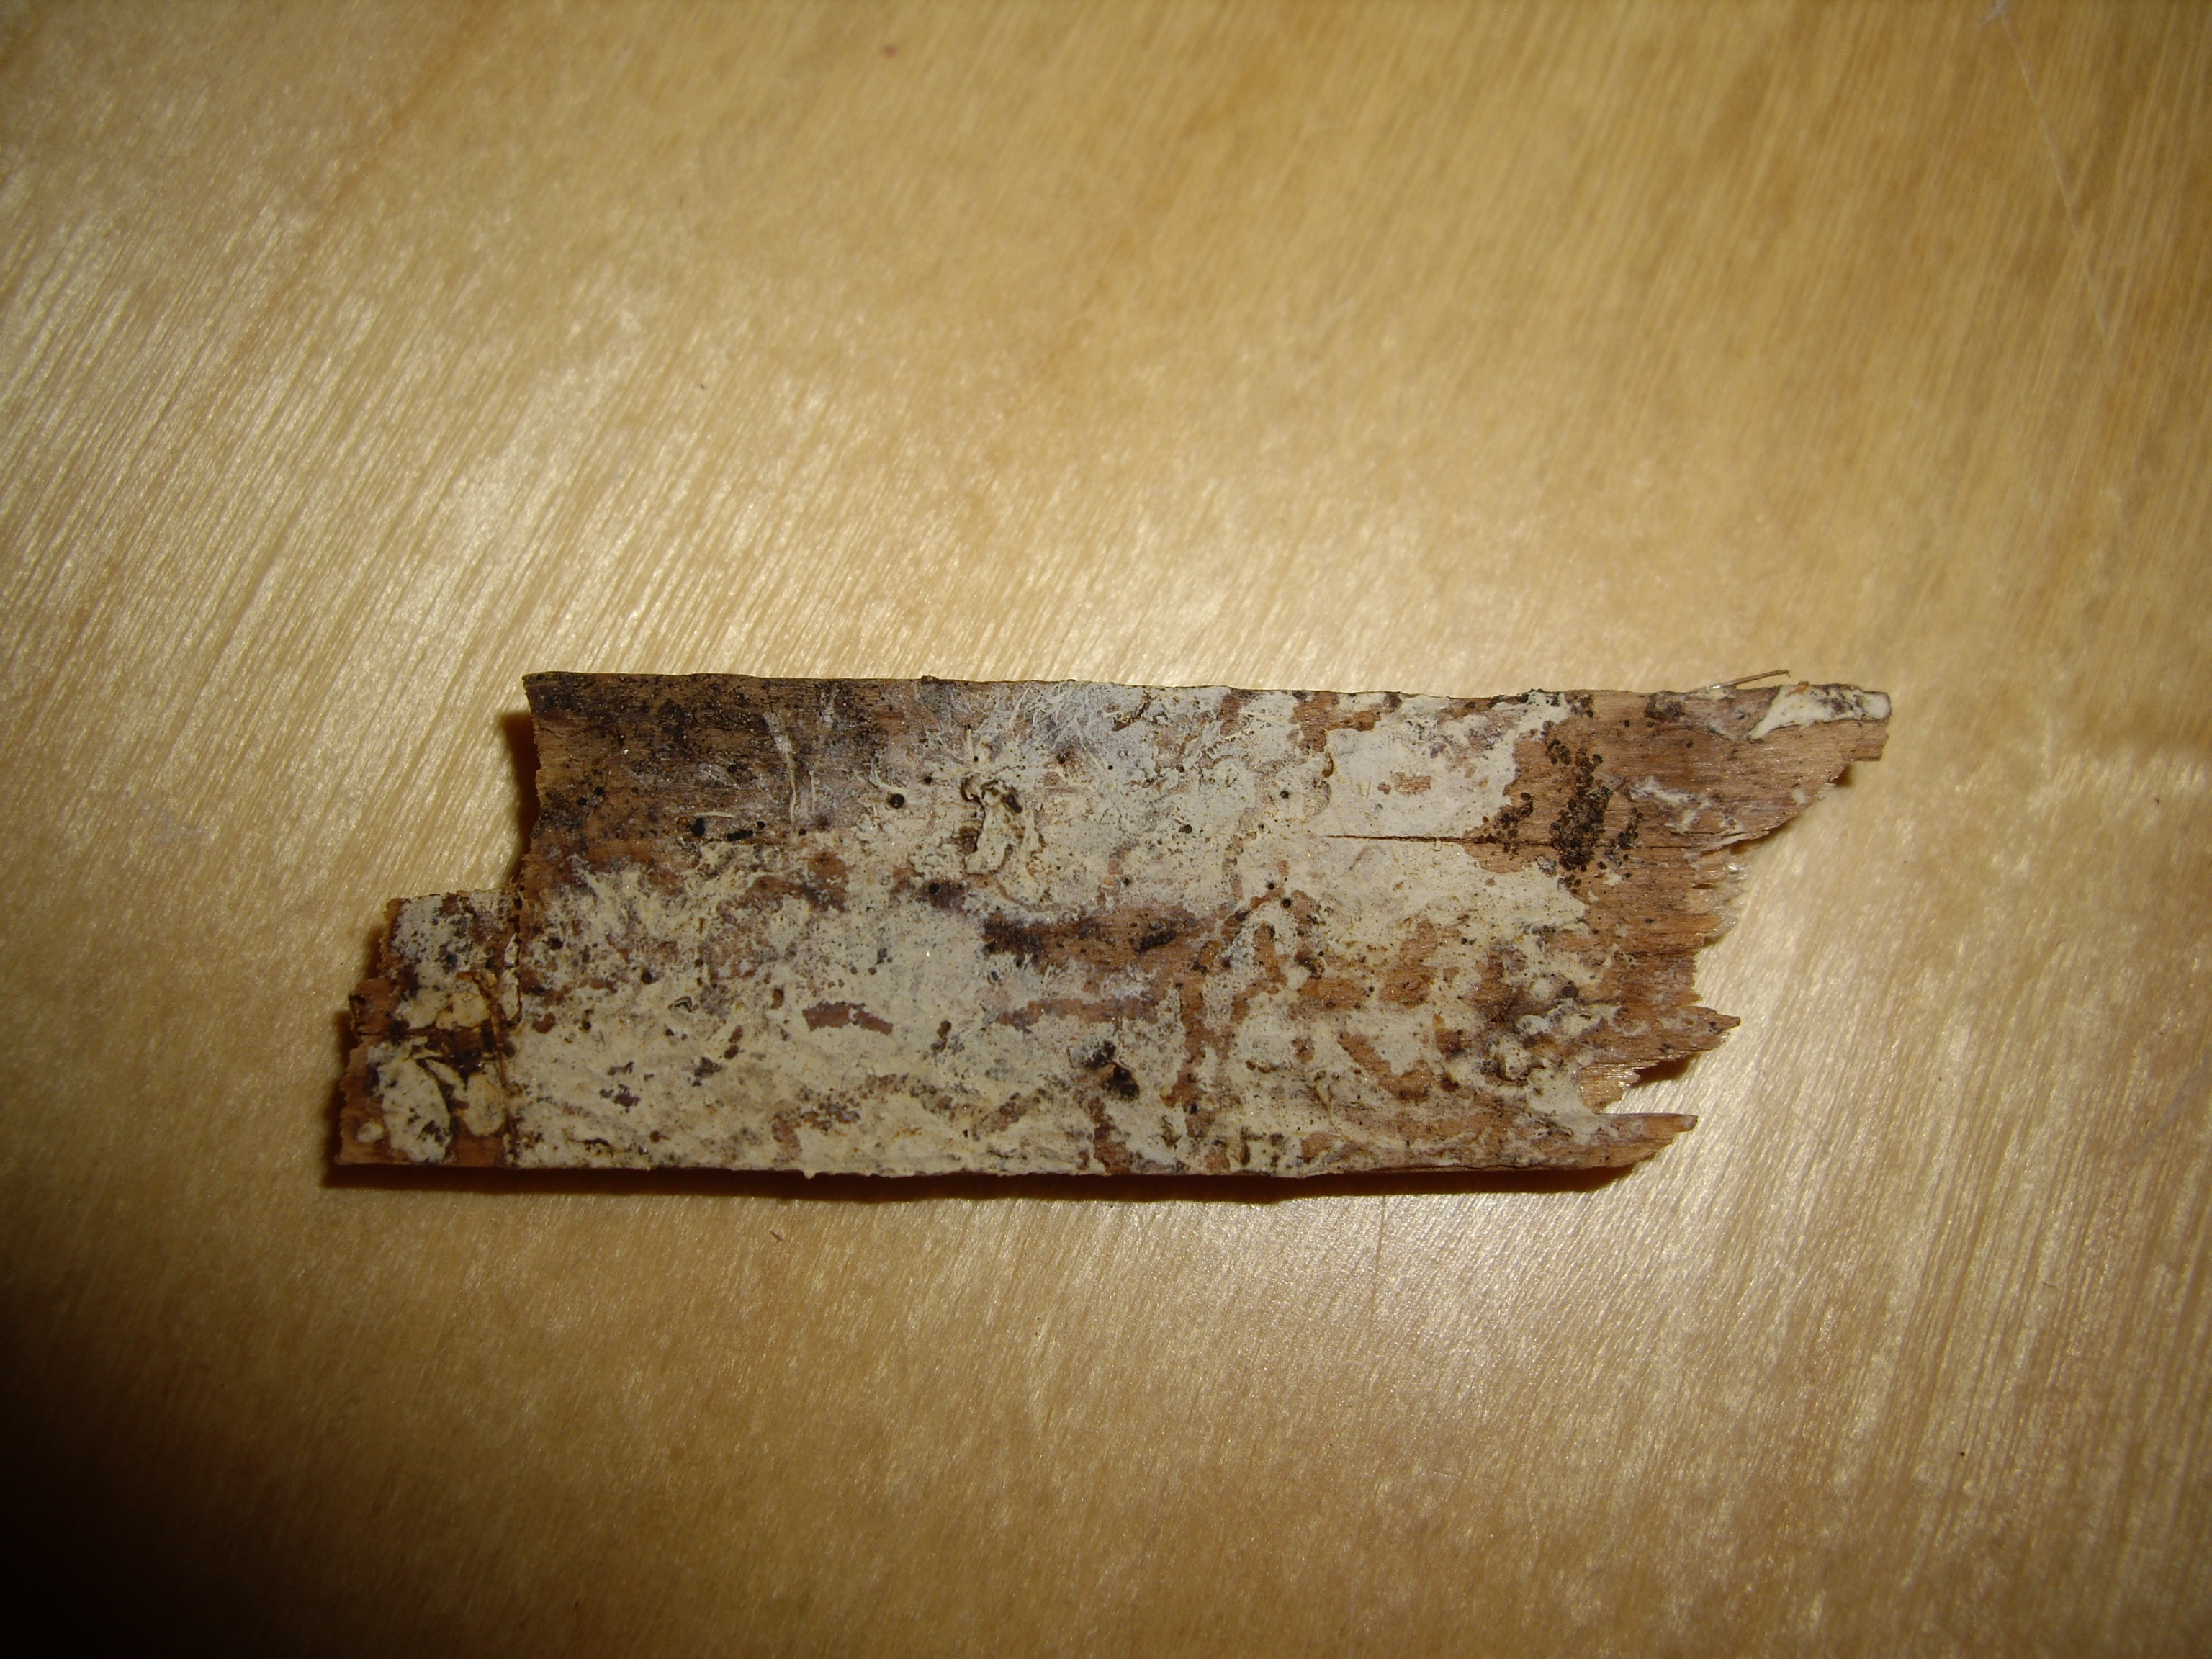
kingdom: Fungi
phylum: Basidiomycota
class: Agaricomycetes
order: Sistotremastrales
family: Sistotremastraceae
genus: Sistotremastrum
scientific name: Sistotremastrum suecicum
